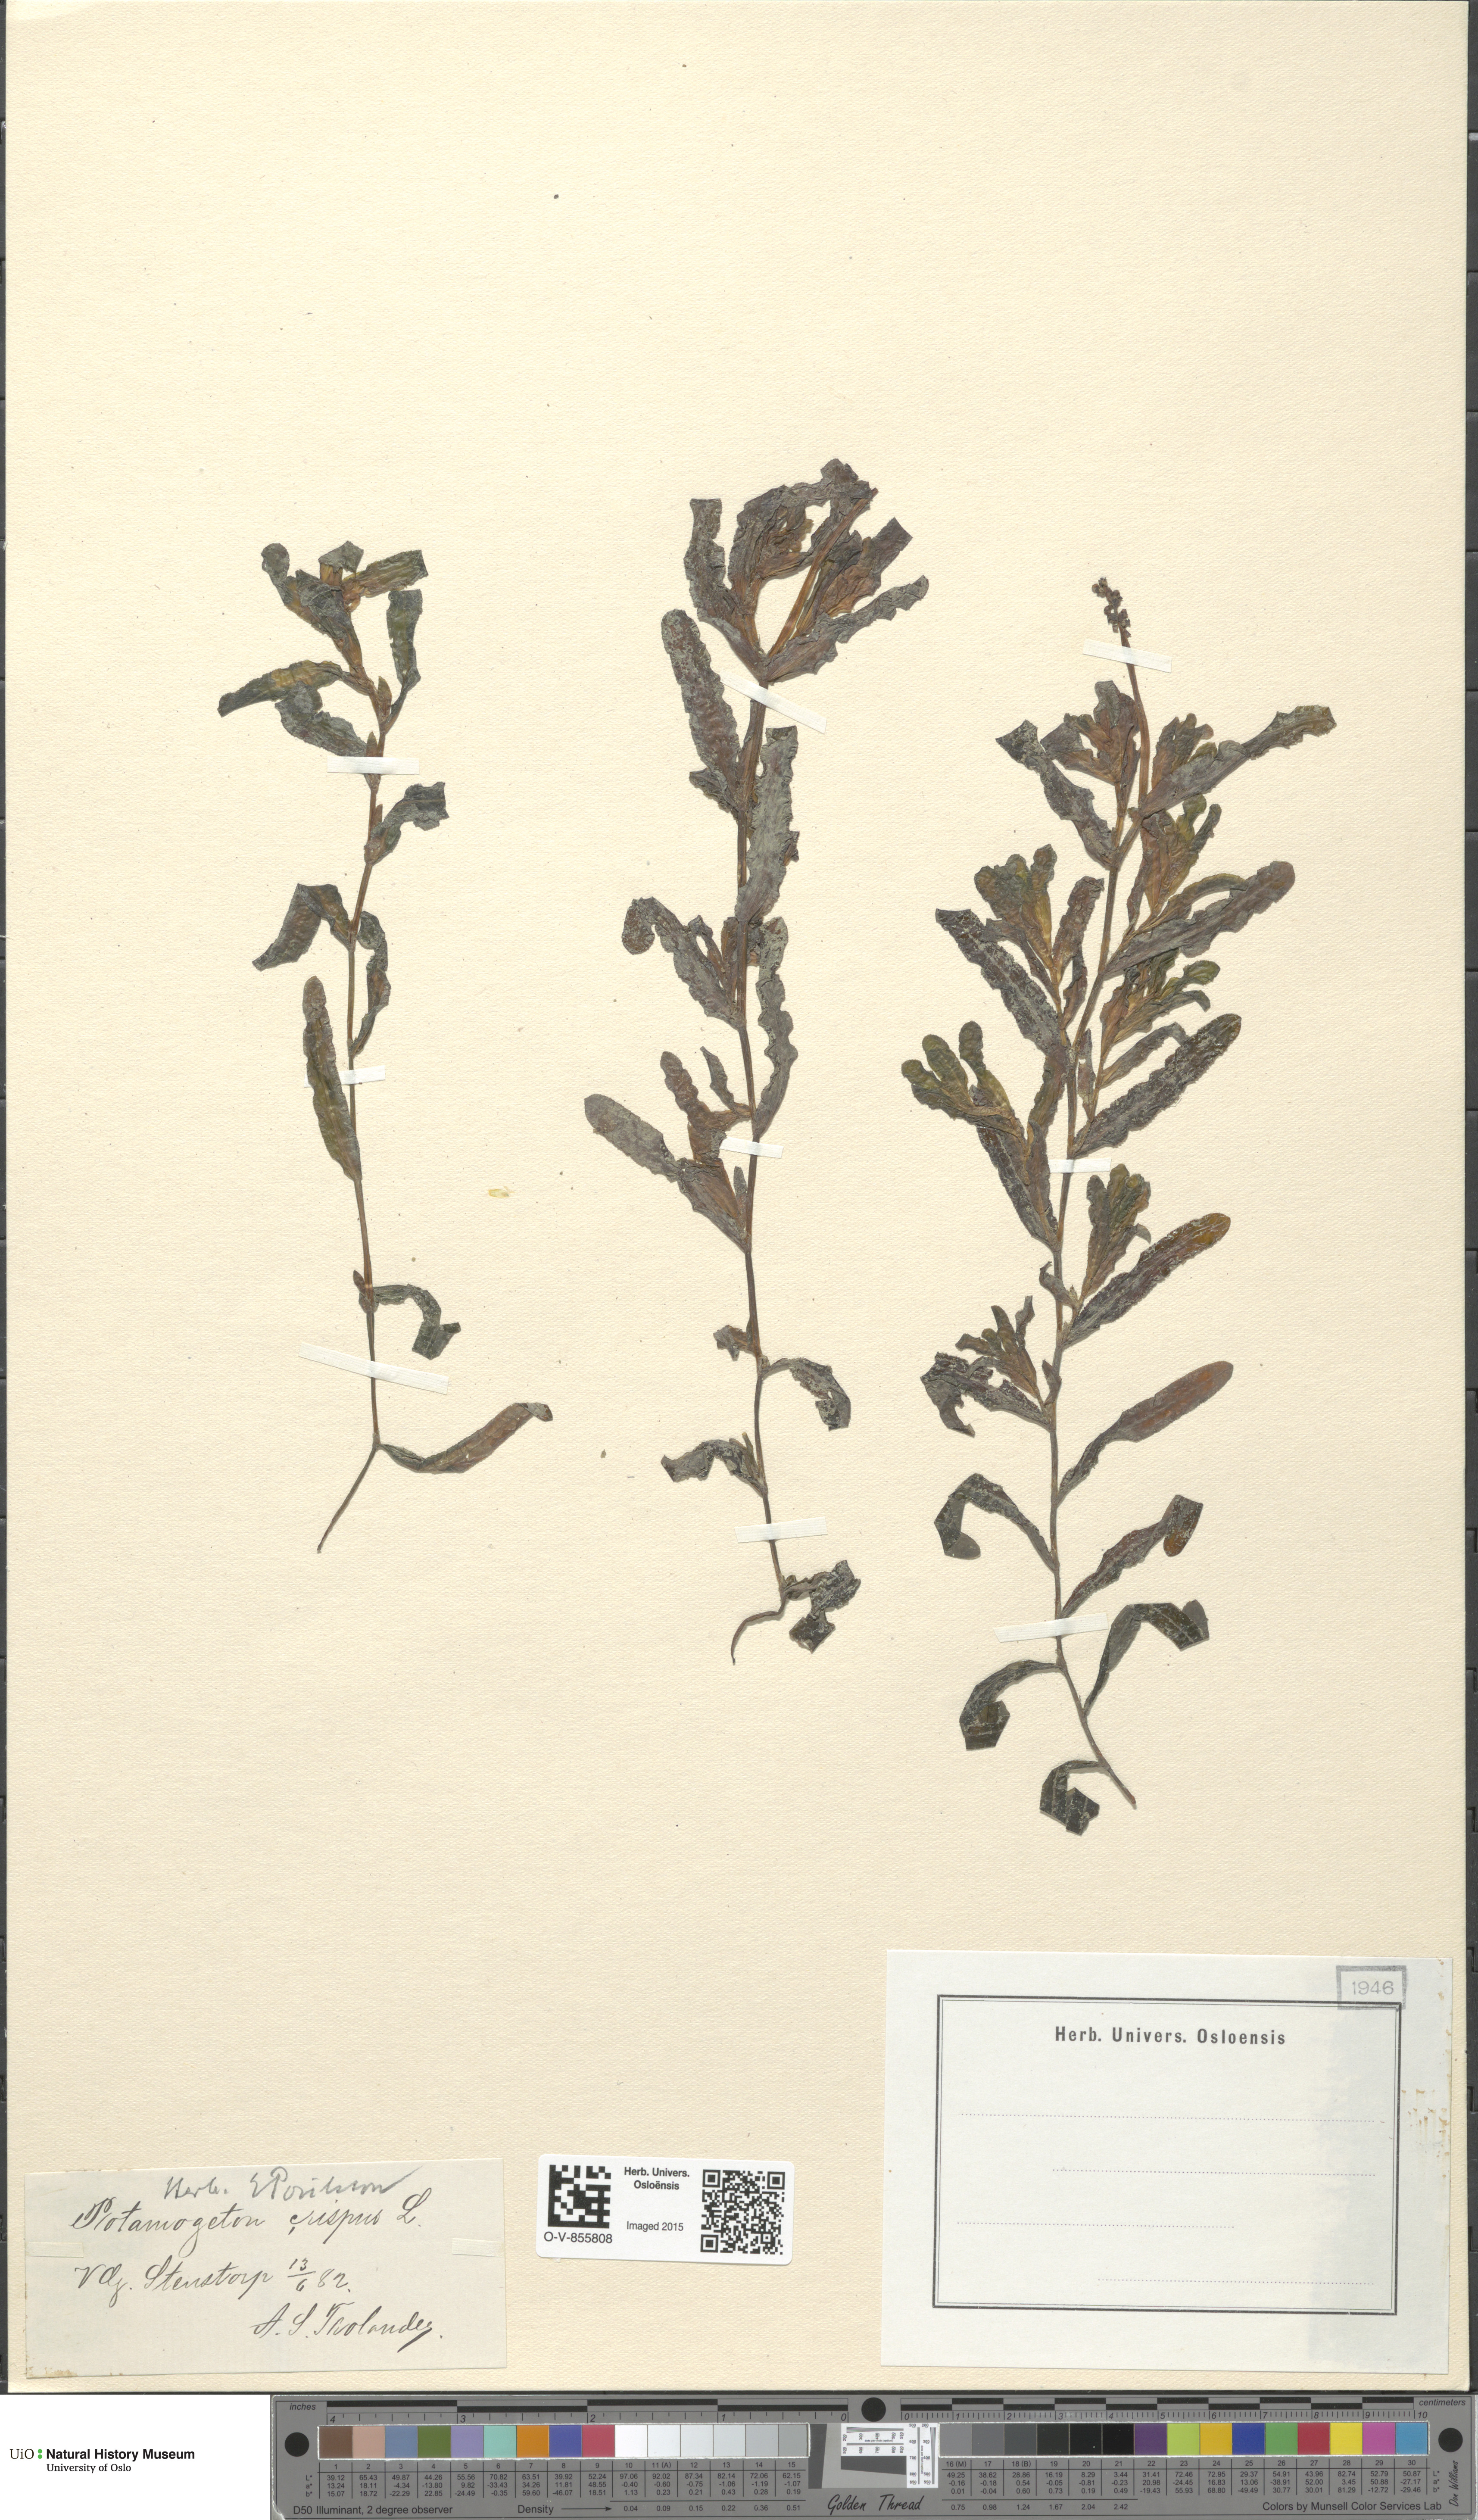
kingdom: Plantae
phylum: Tracheophyta
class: Liliopsida
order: Alismatales
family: Potamogetonaceae
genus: Potamogeton
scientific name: Potamogeton crispus
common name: Curled pondweed
